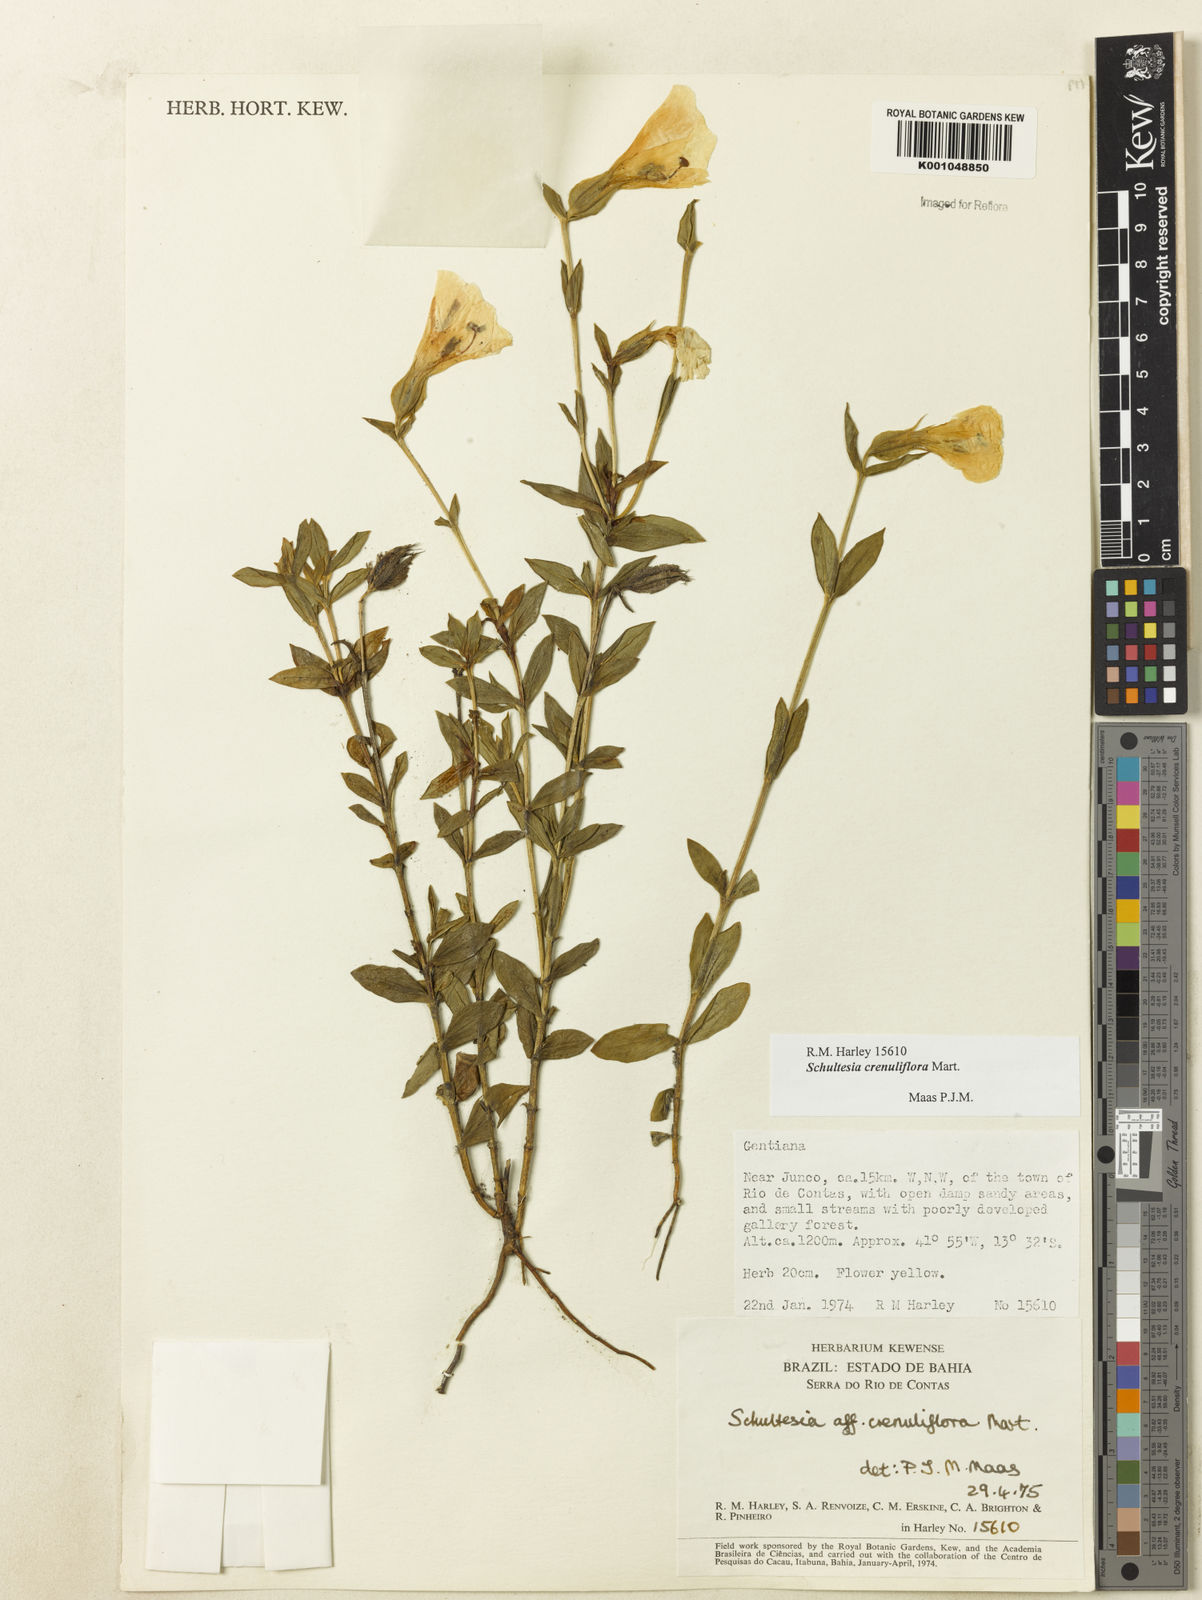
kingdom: Plantae
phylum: Tracheophyta
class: Magnoliopsida
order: Gentianales
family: Gentianaceae
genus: Schultesia
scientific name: Schultesia crenuliflora
